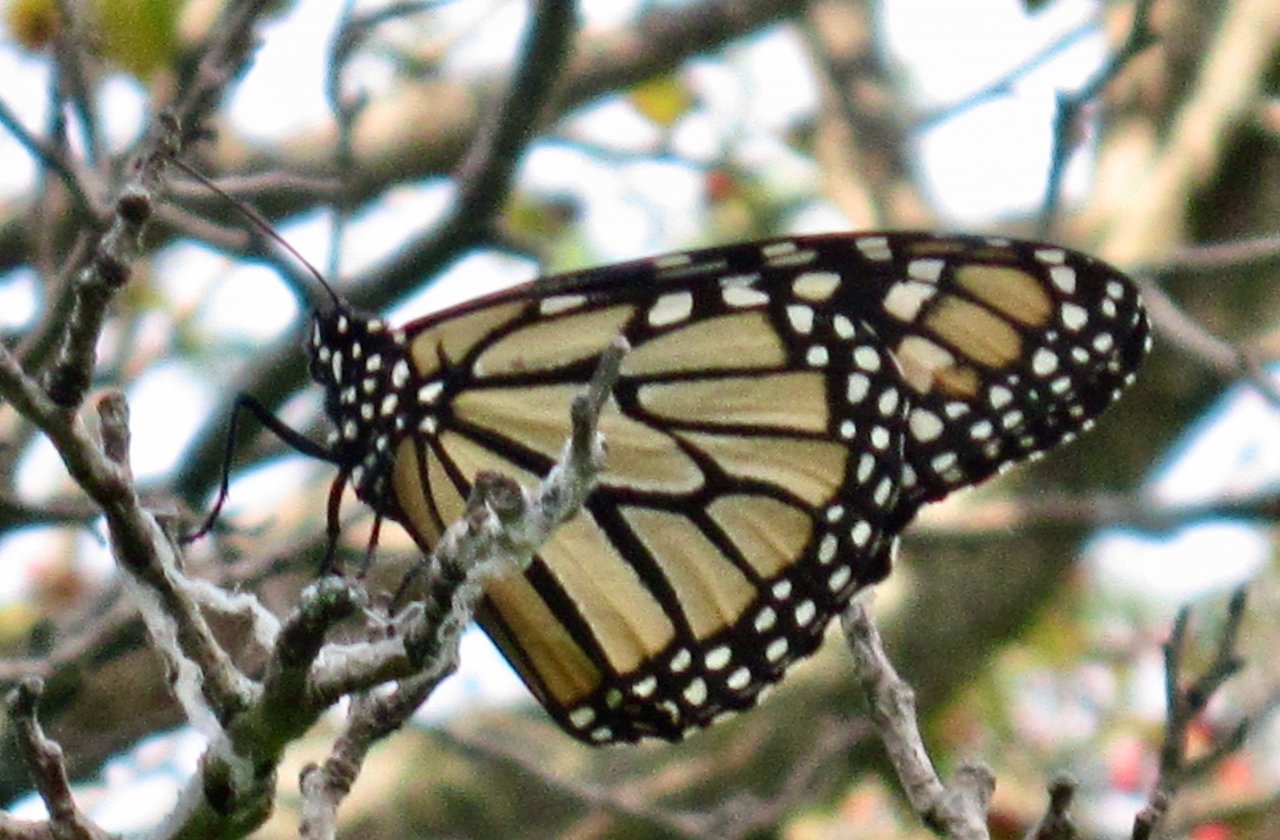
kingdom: Animalia
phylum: Arthropoda
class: Insecta
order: Lepidoptera
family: Nymphalidae
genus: Danaus
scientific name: Danaus plexippus
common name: Monarch
